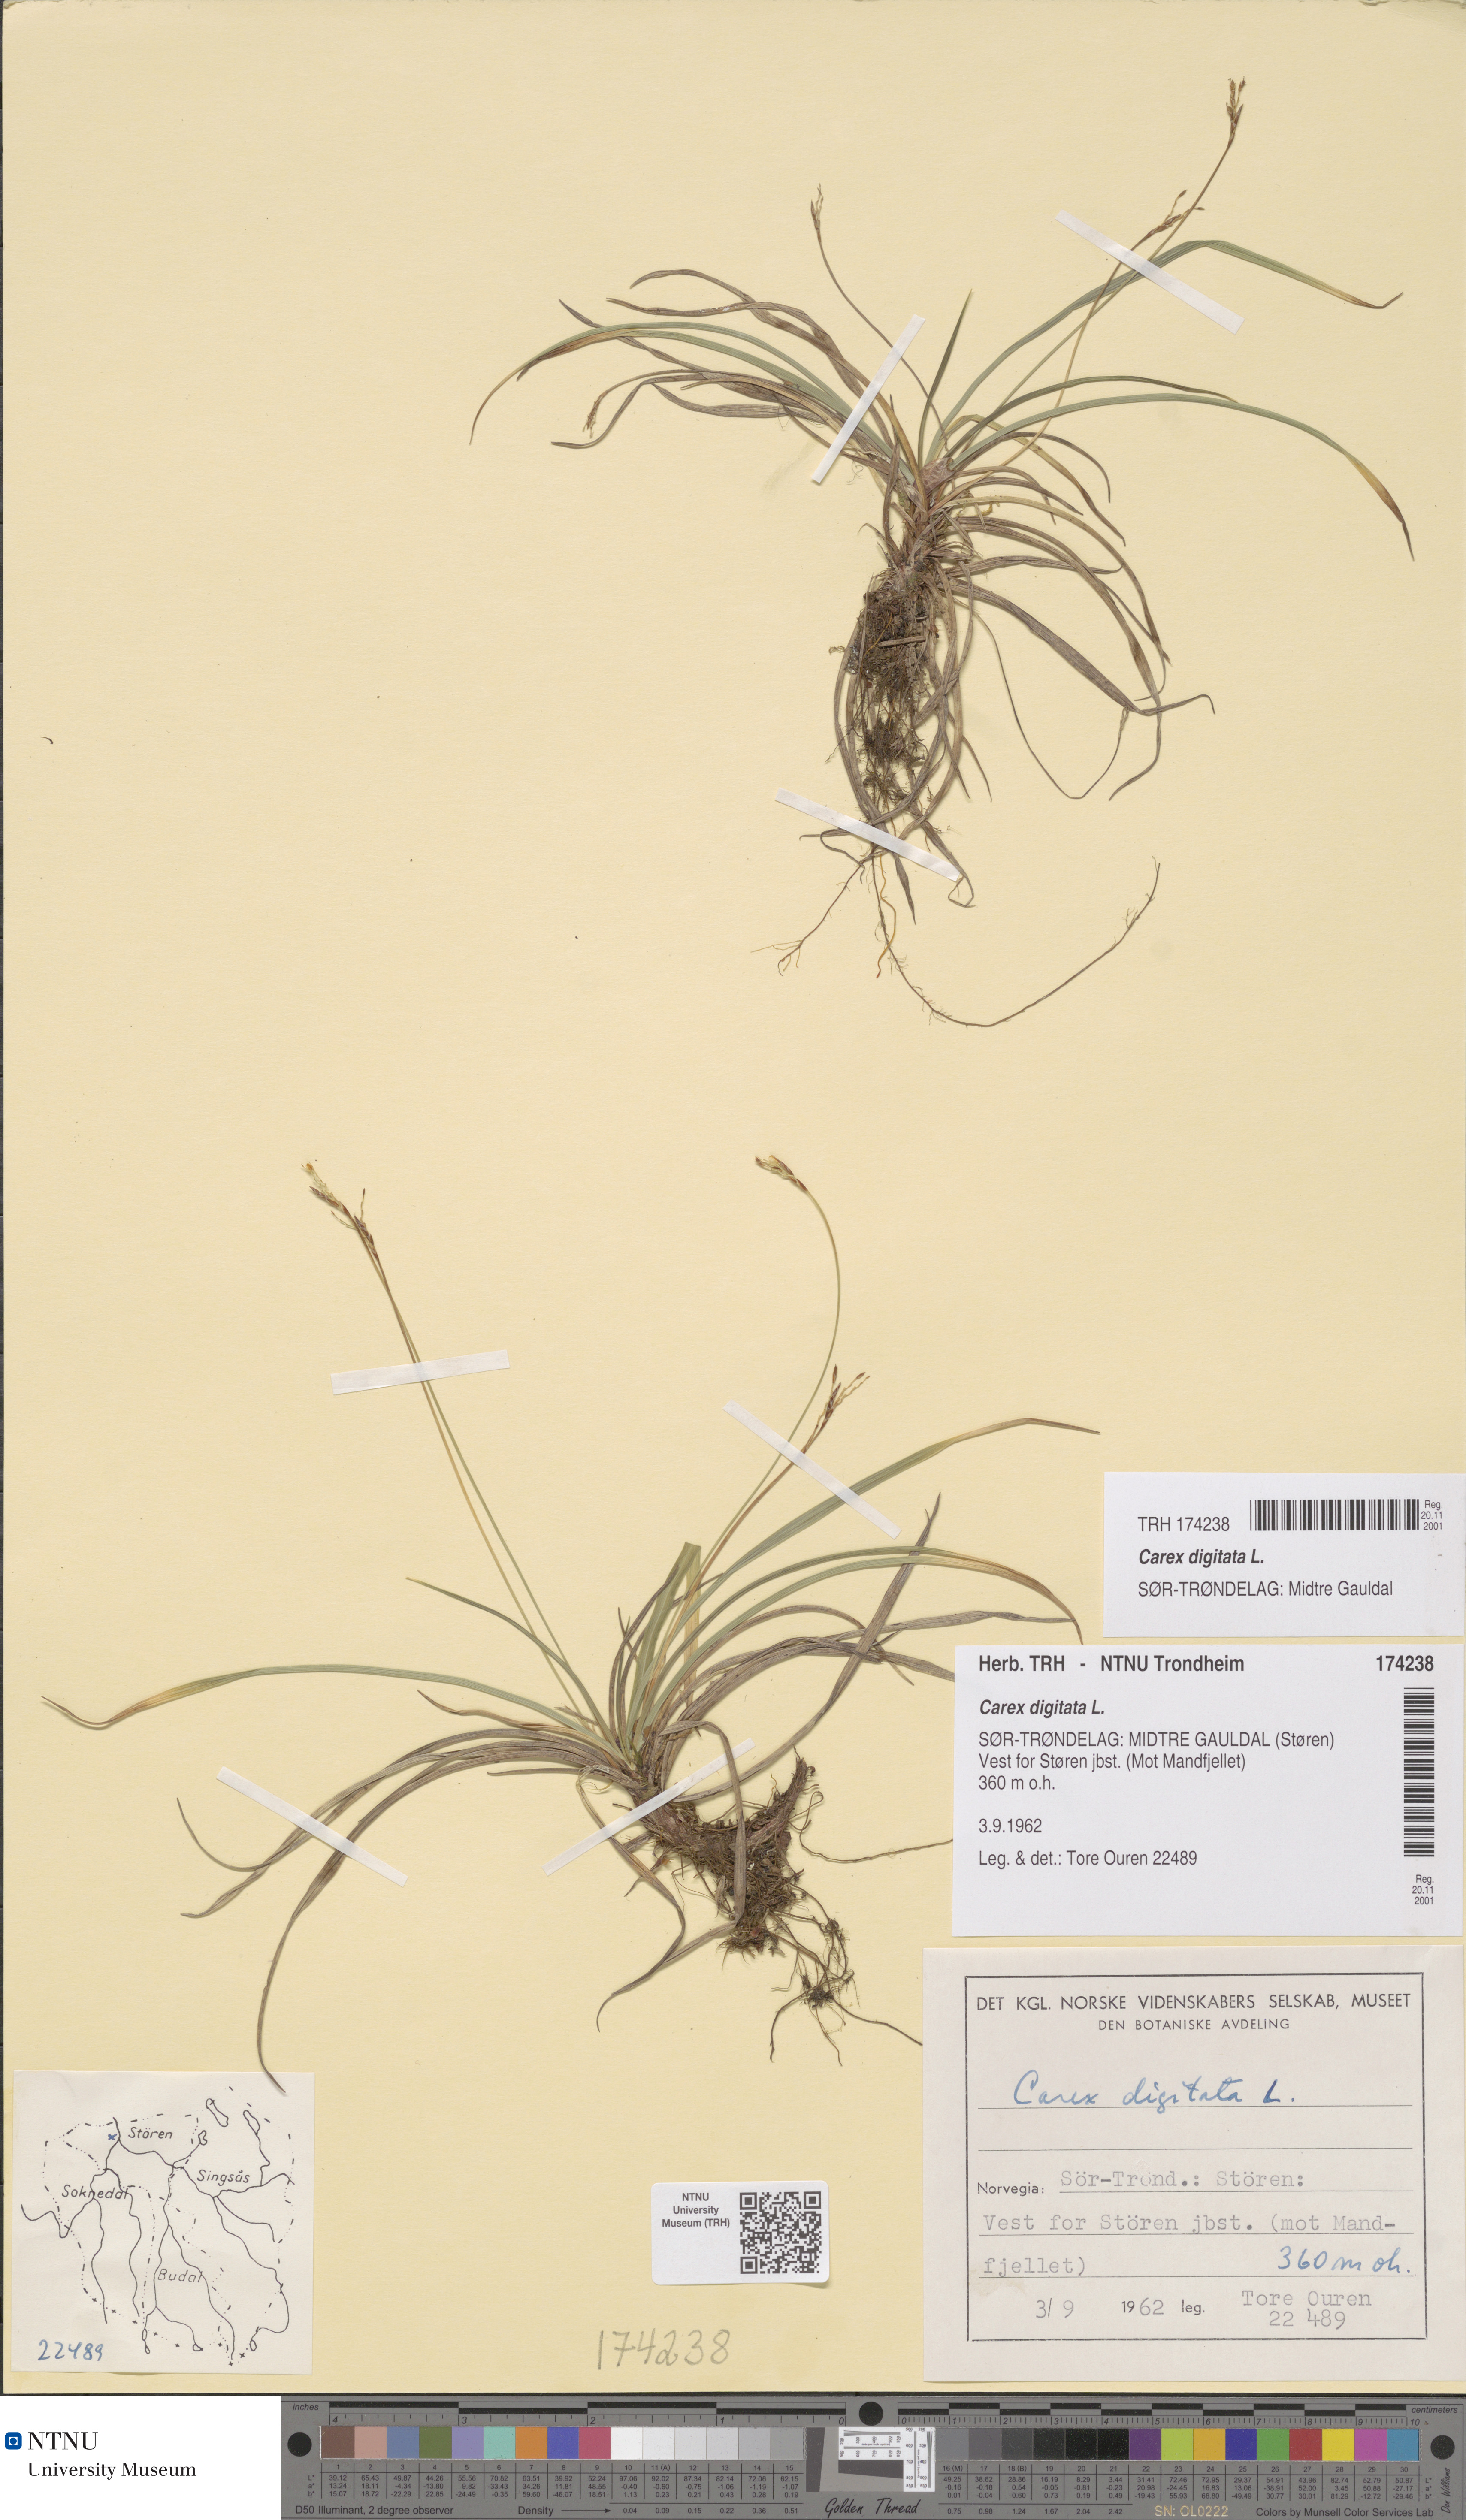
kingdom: Plantae
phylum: Tracheophyta
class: Liliopsida
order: Poales
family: Cyperaceae
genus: Carex
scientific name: Carex ornithopoda
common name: Bird's-foot sedge
